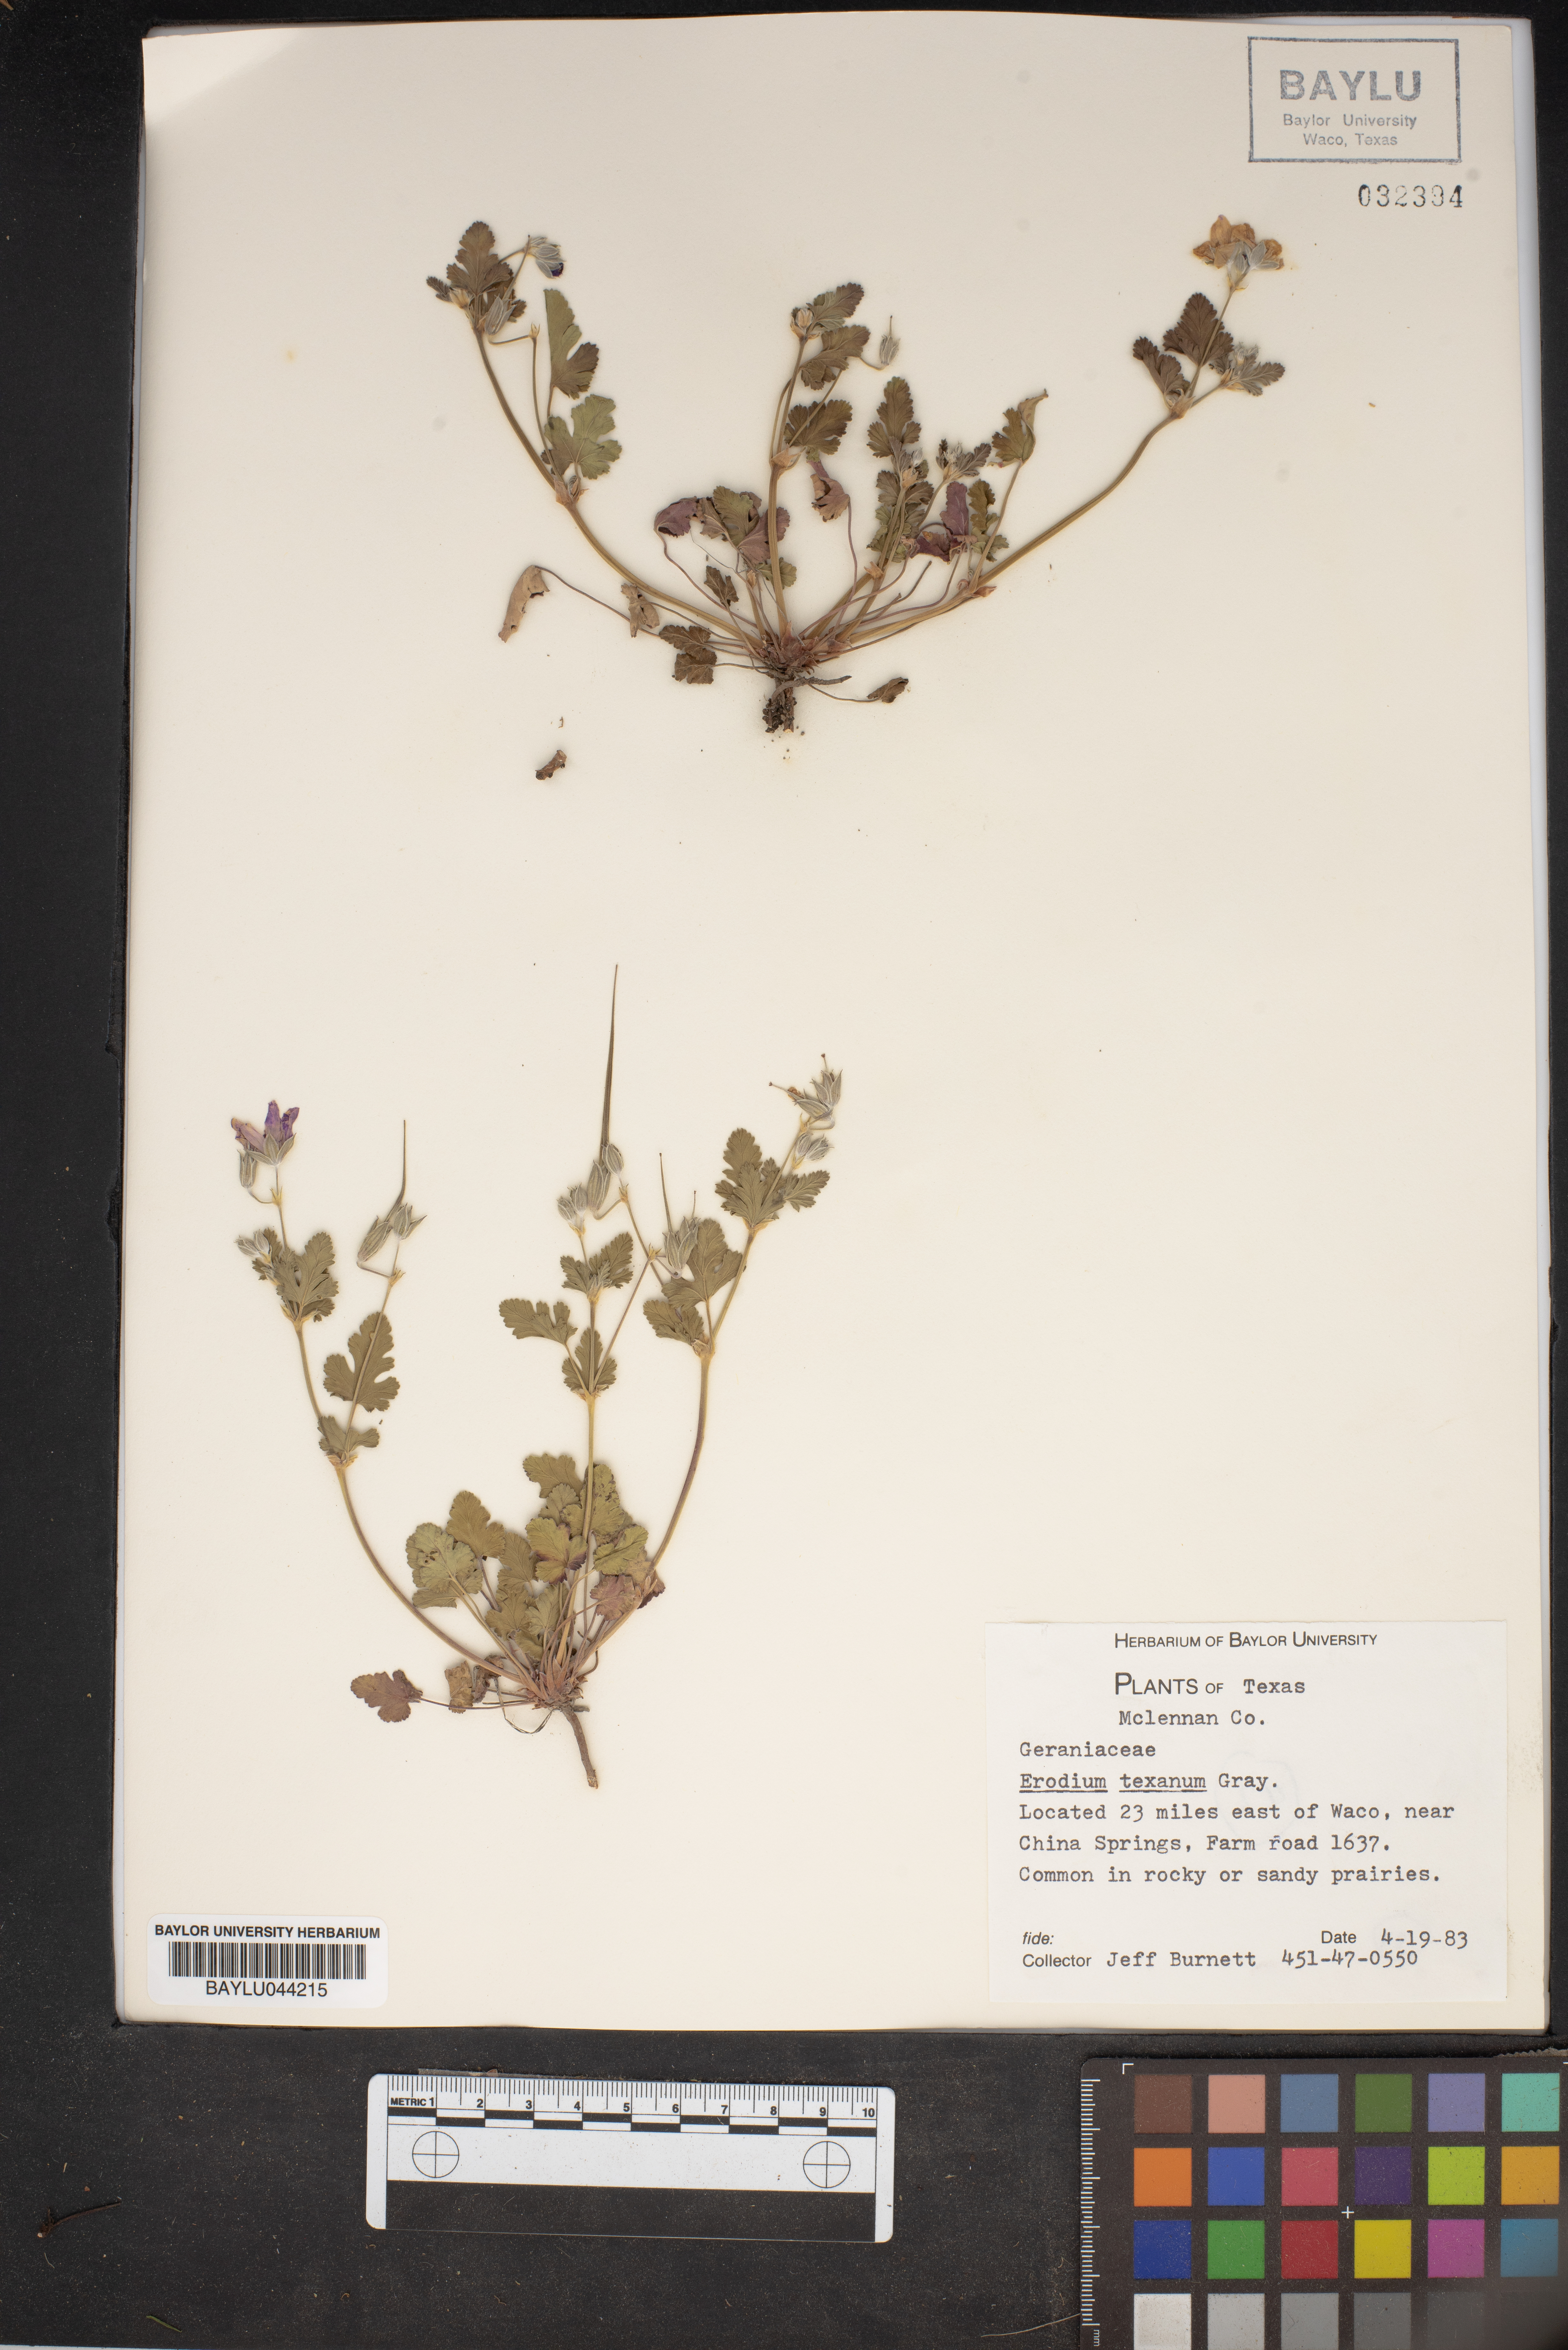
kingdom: Plantae
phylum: Tracheophyta
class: Magnoliopsida
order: Geraniales
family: Geraniaceae
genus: Erodium
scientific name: Erodium texanum
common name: Texas stork's-bill
